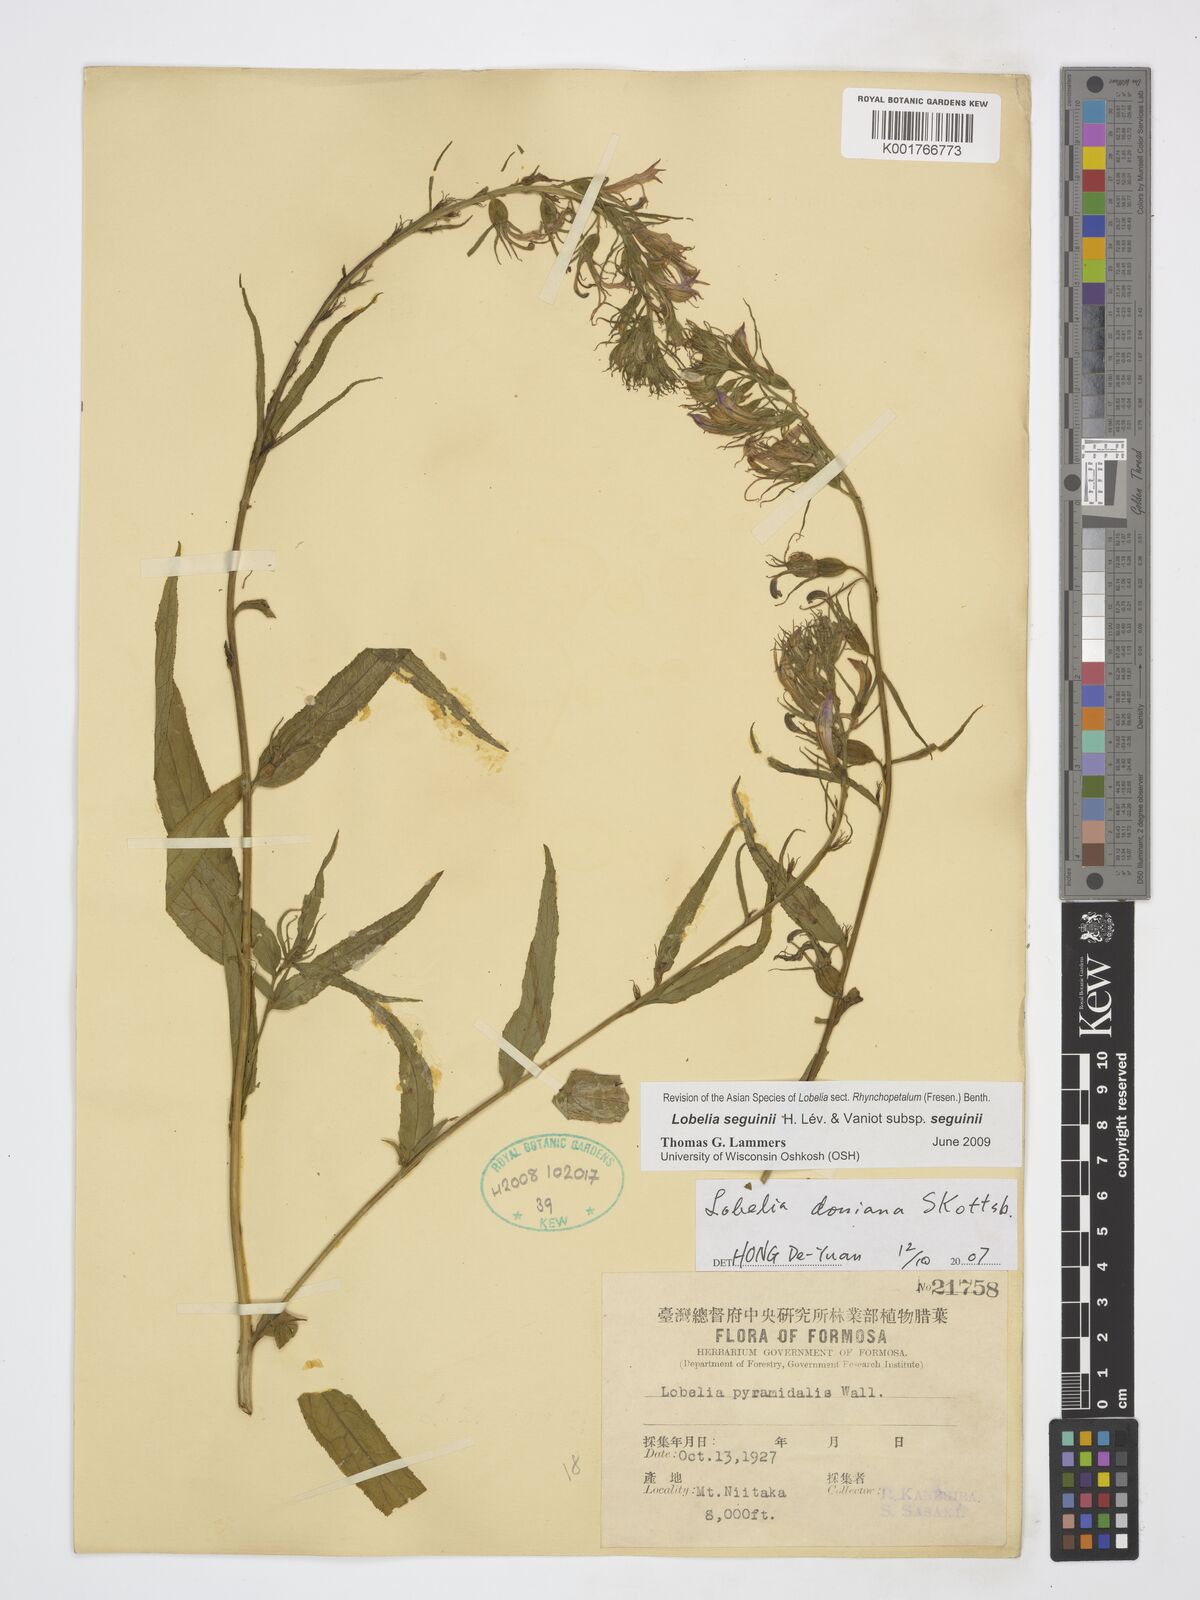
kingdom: Plantae
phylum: Tracheophyta
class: Magnoliopsida
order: Asterales
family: Campanulaceae
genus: Lobelia
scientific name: Lobelia seguinii
